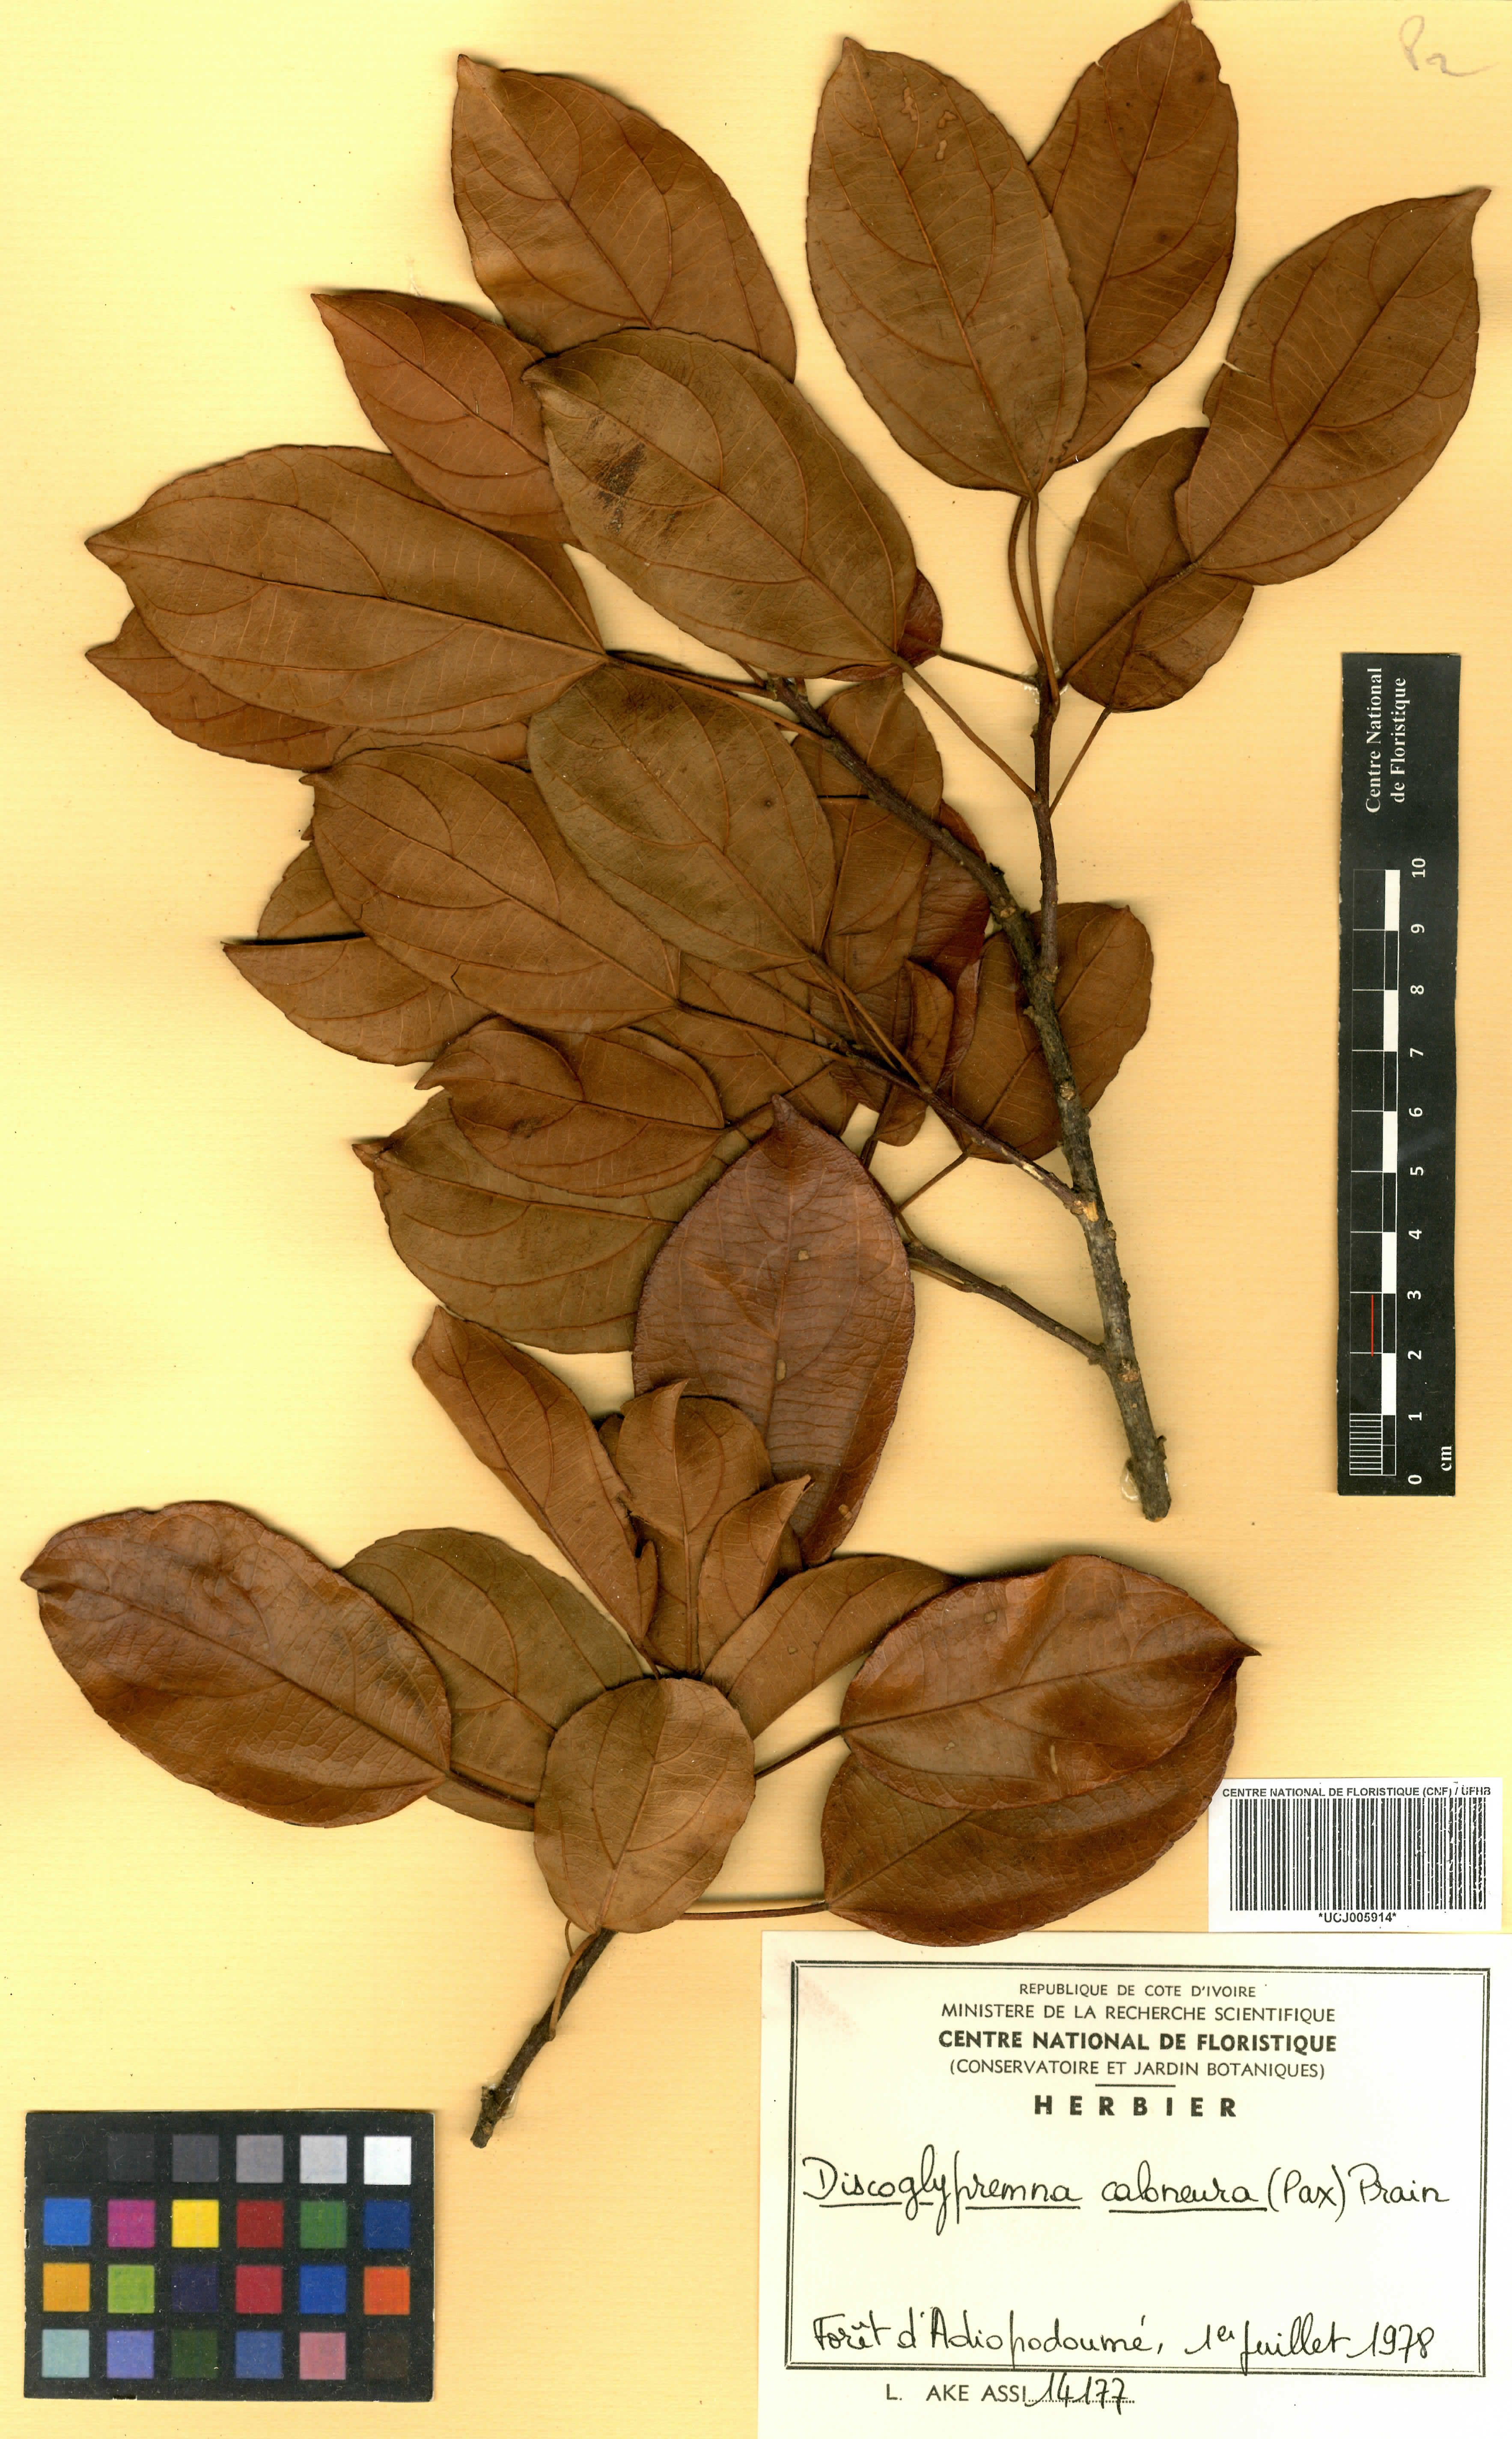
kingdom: Plantae
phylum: Tracheophyta
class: Magnoliopsida
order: Malpighiales
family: Euphorbiaceae
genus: Discoglypremna
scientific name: Discoglypremna caloneura
